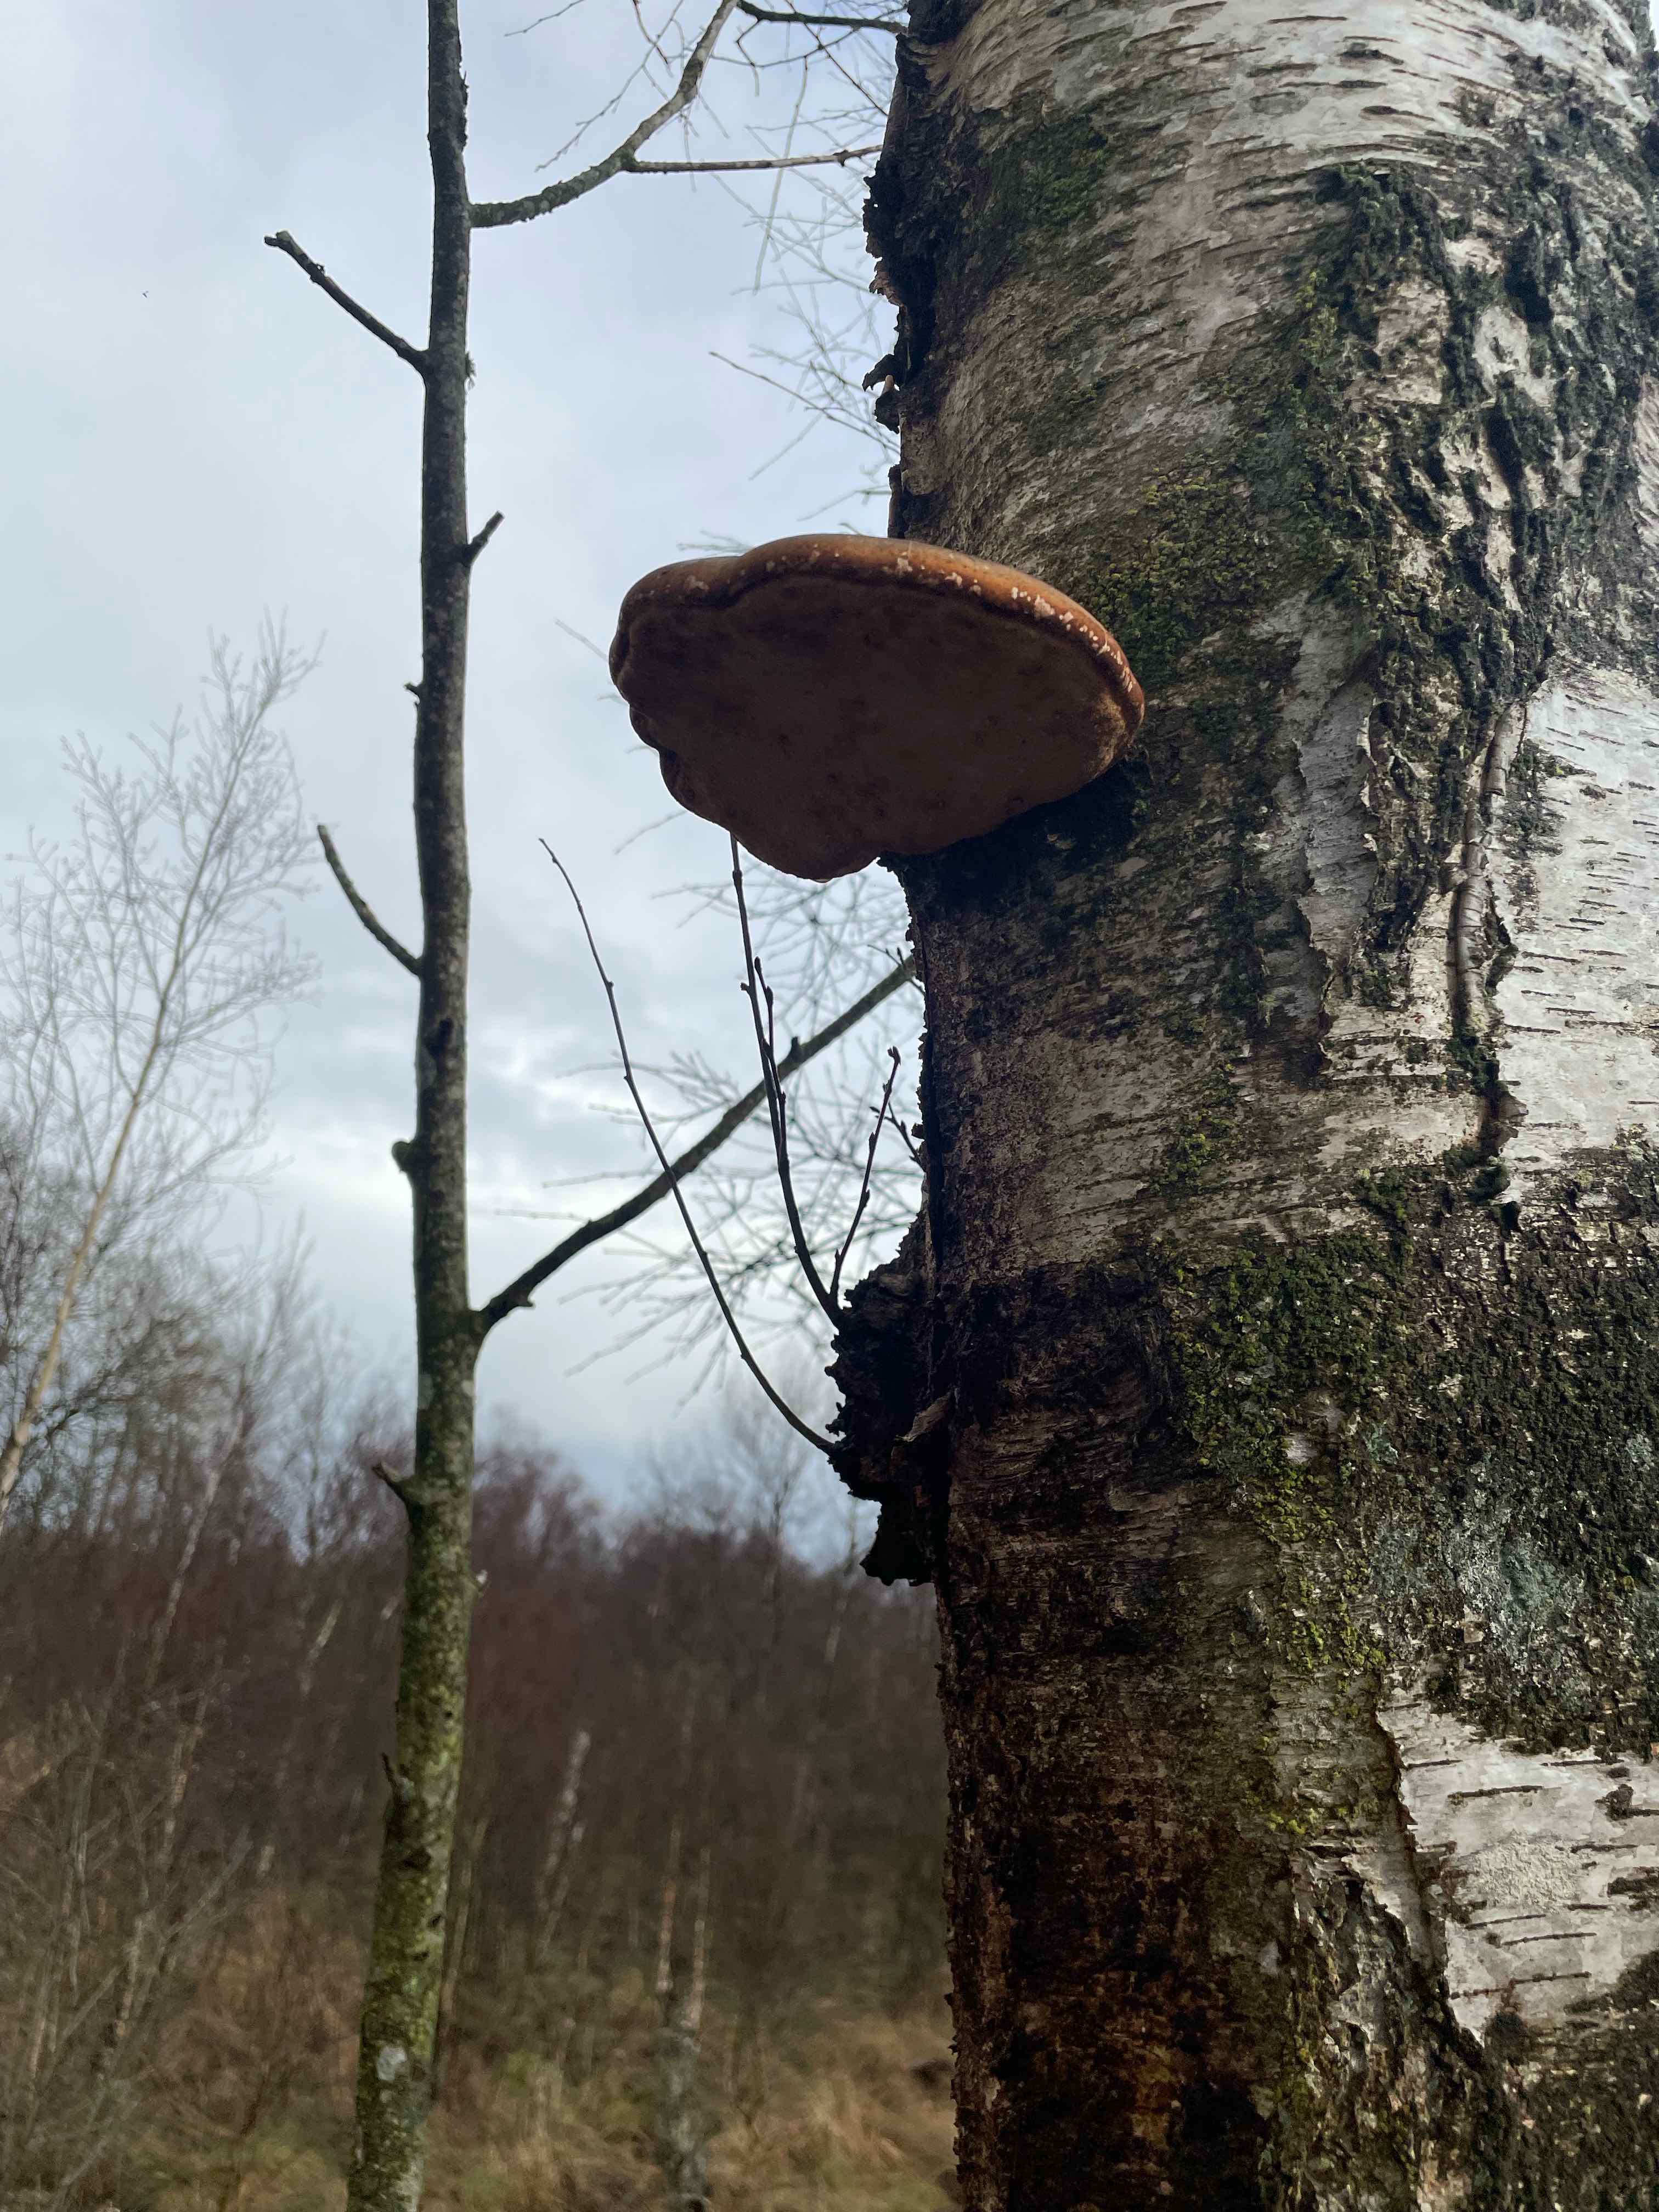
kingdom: Fungi
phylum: Basidiomycota
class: Agaricomycetes
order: Polyporales
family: Fomitopsidaceae
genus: Fomitopsis
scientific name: Fomitopsis betulina
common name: birkeporesvamp
